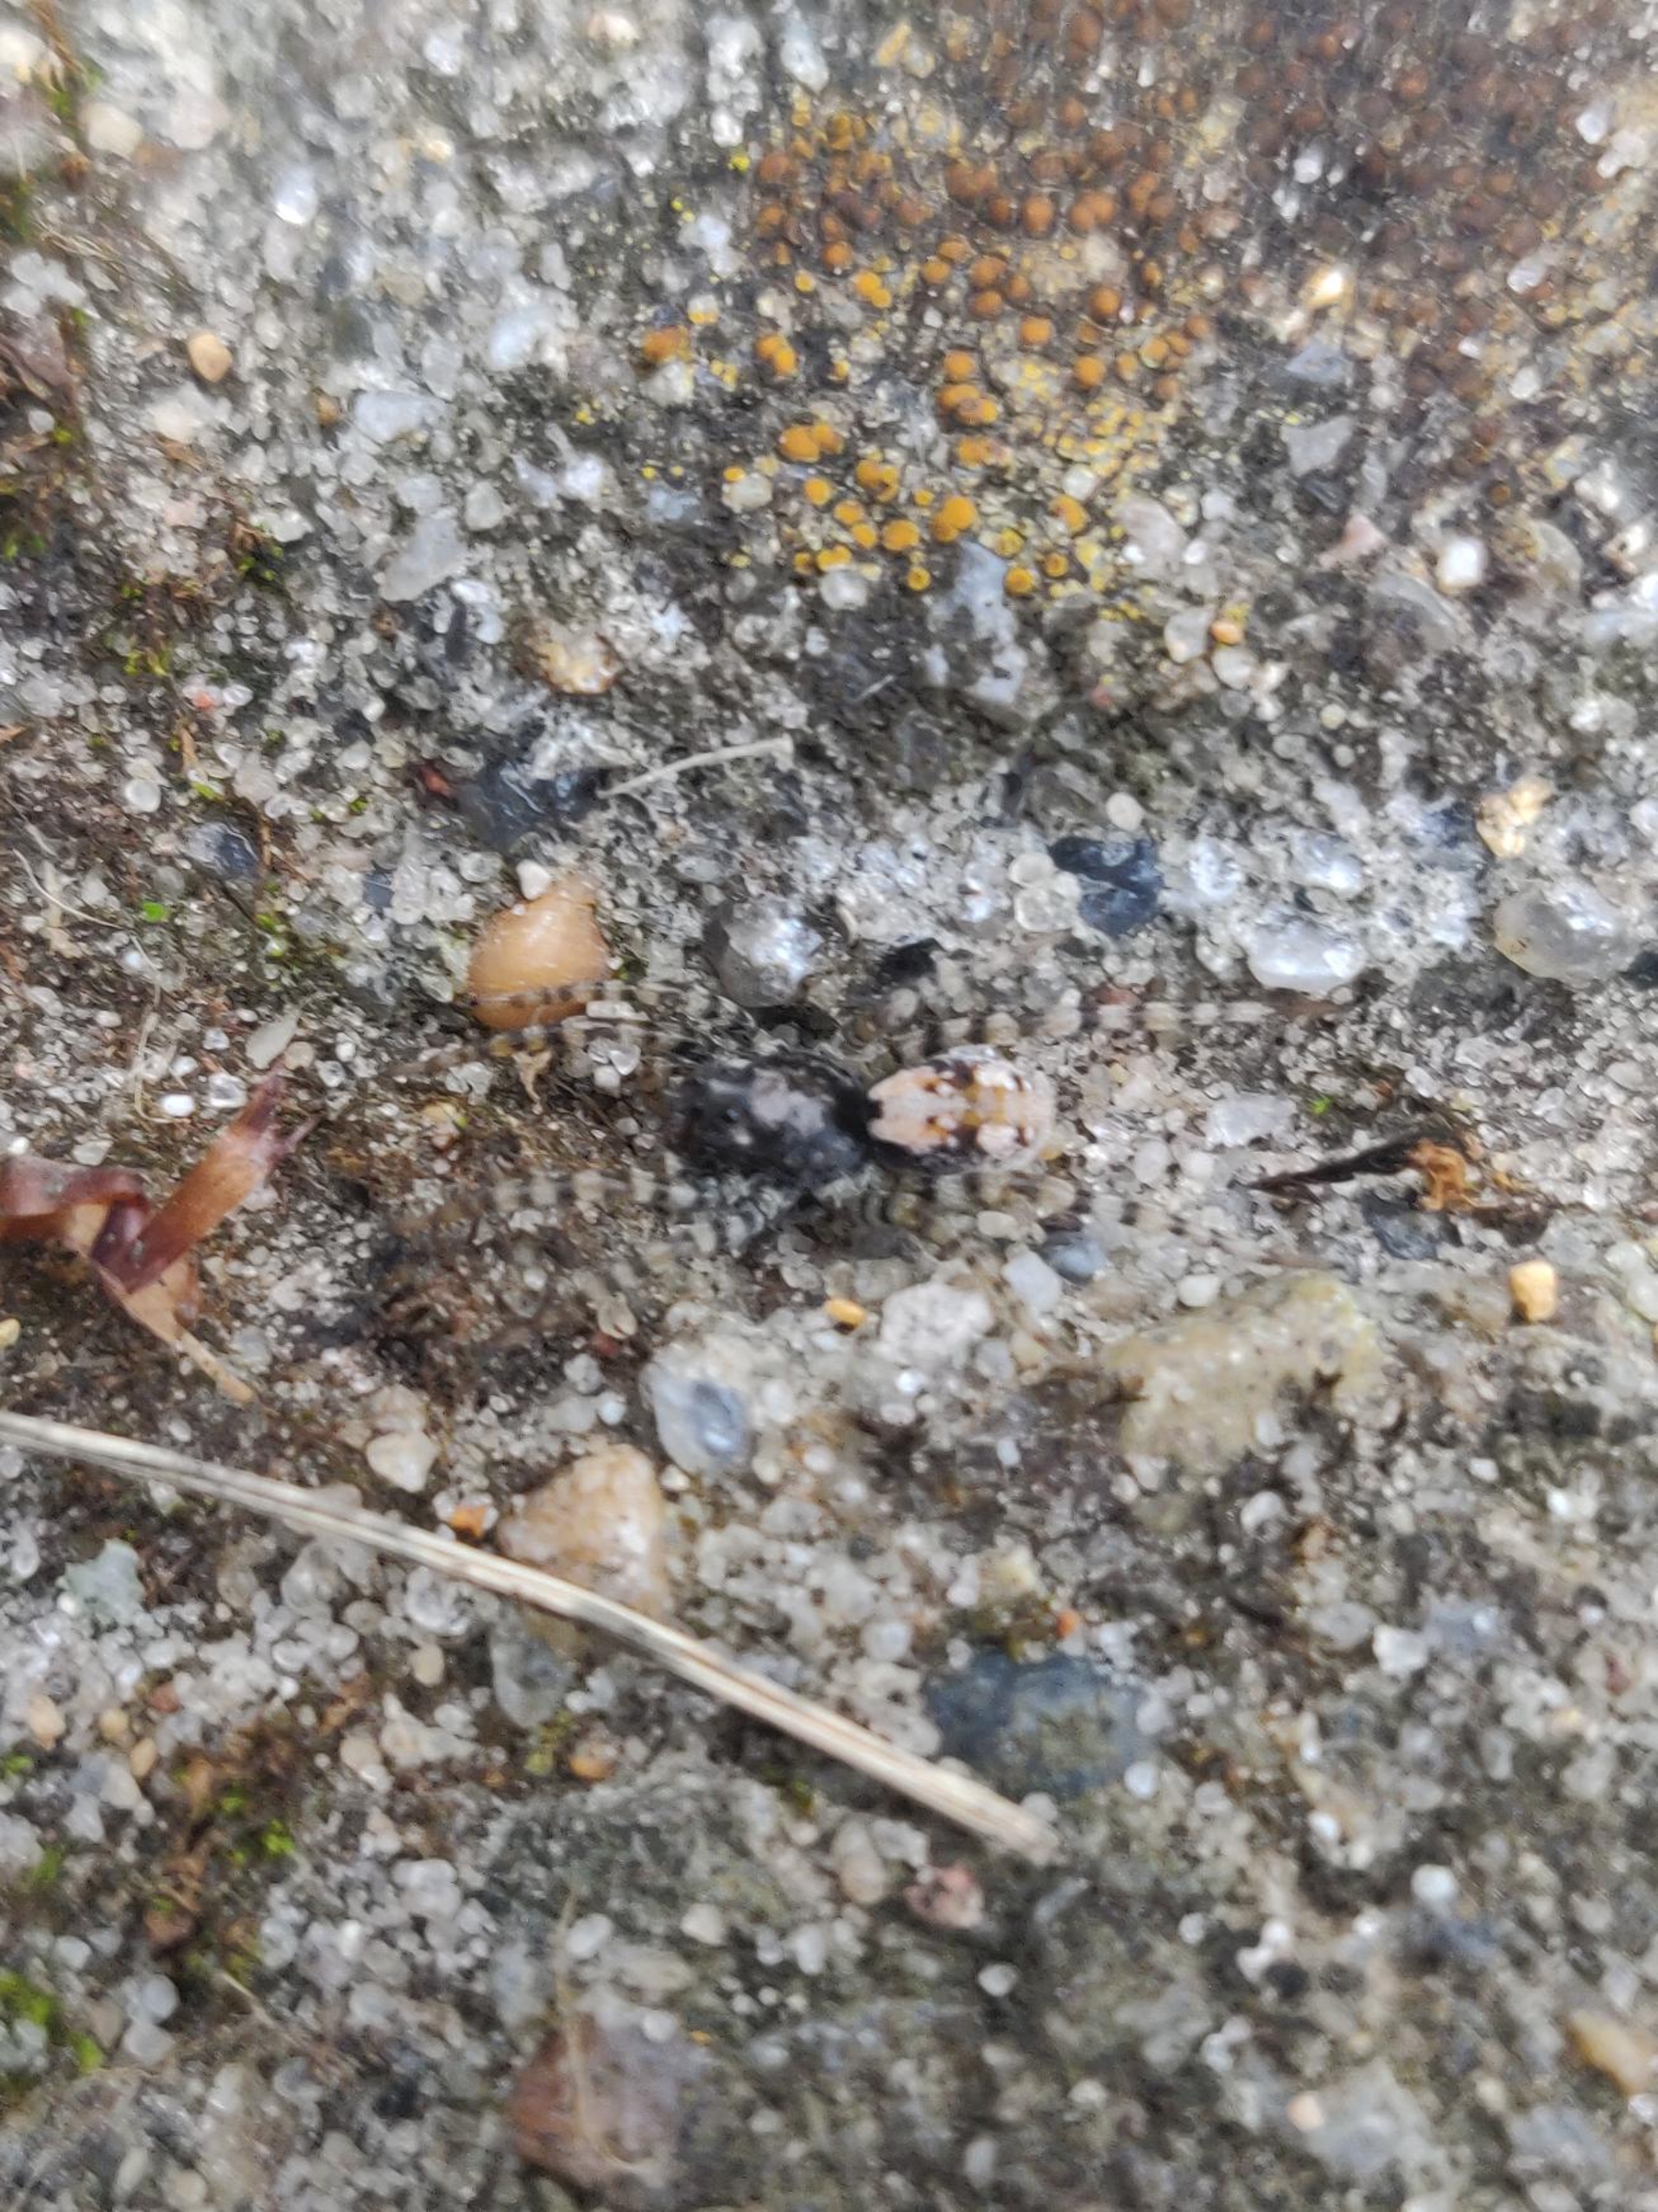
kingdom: Animalia
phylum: Arthropoda
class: Arachnida
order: Araneae
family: Lycosidae
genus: Arctosa
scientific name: Arctosa perita
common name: Klitgraveedderkop
